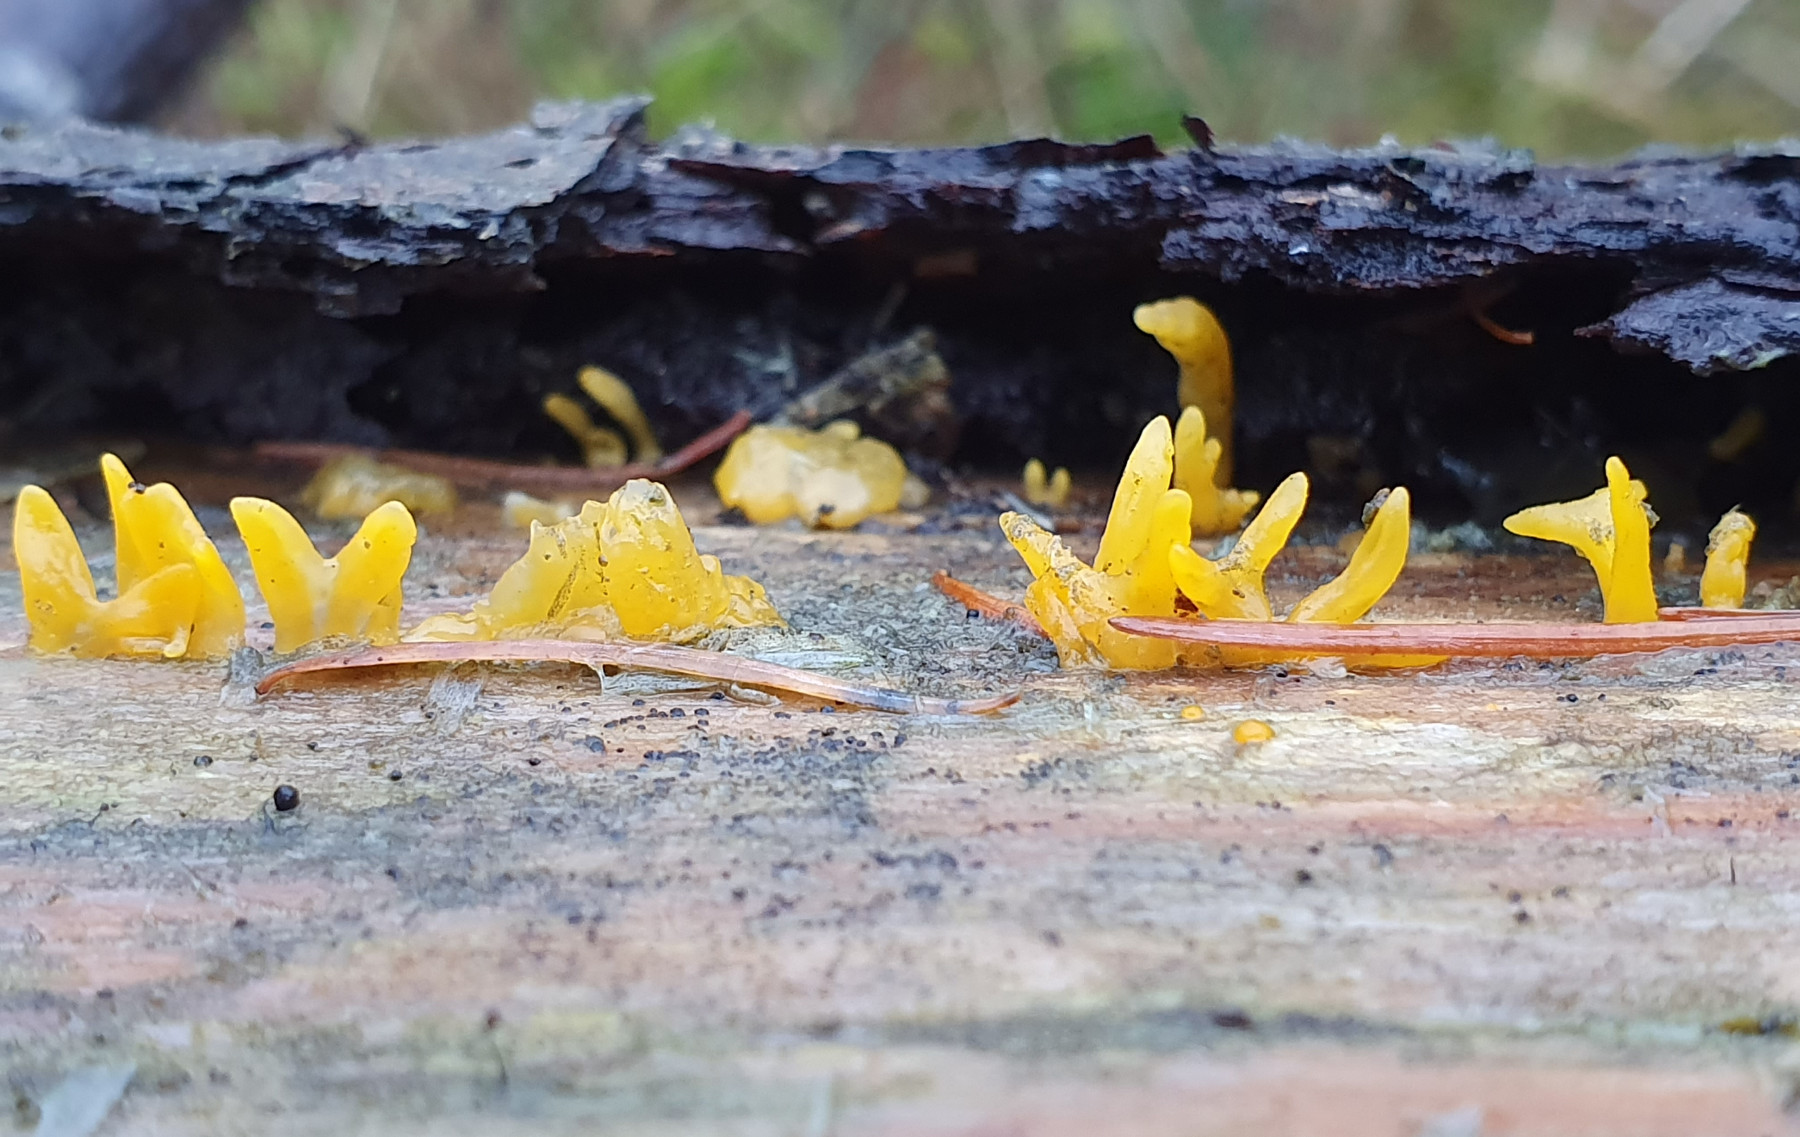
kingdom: Fungi
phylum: Basidiomycota
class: Dacrymycetes
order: Dacrymycetales
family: Dacrymycetaceae
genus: Calocera
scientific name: Calocera furcata
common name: fyrre-guldgaffel
